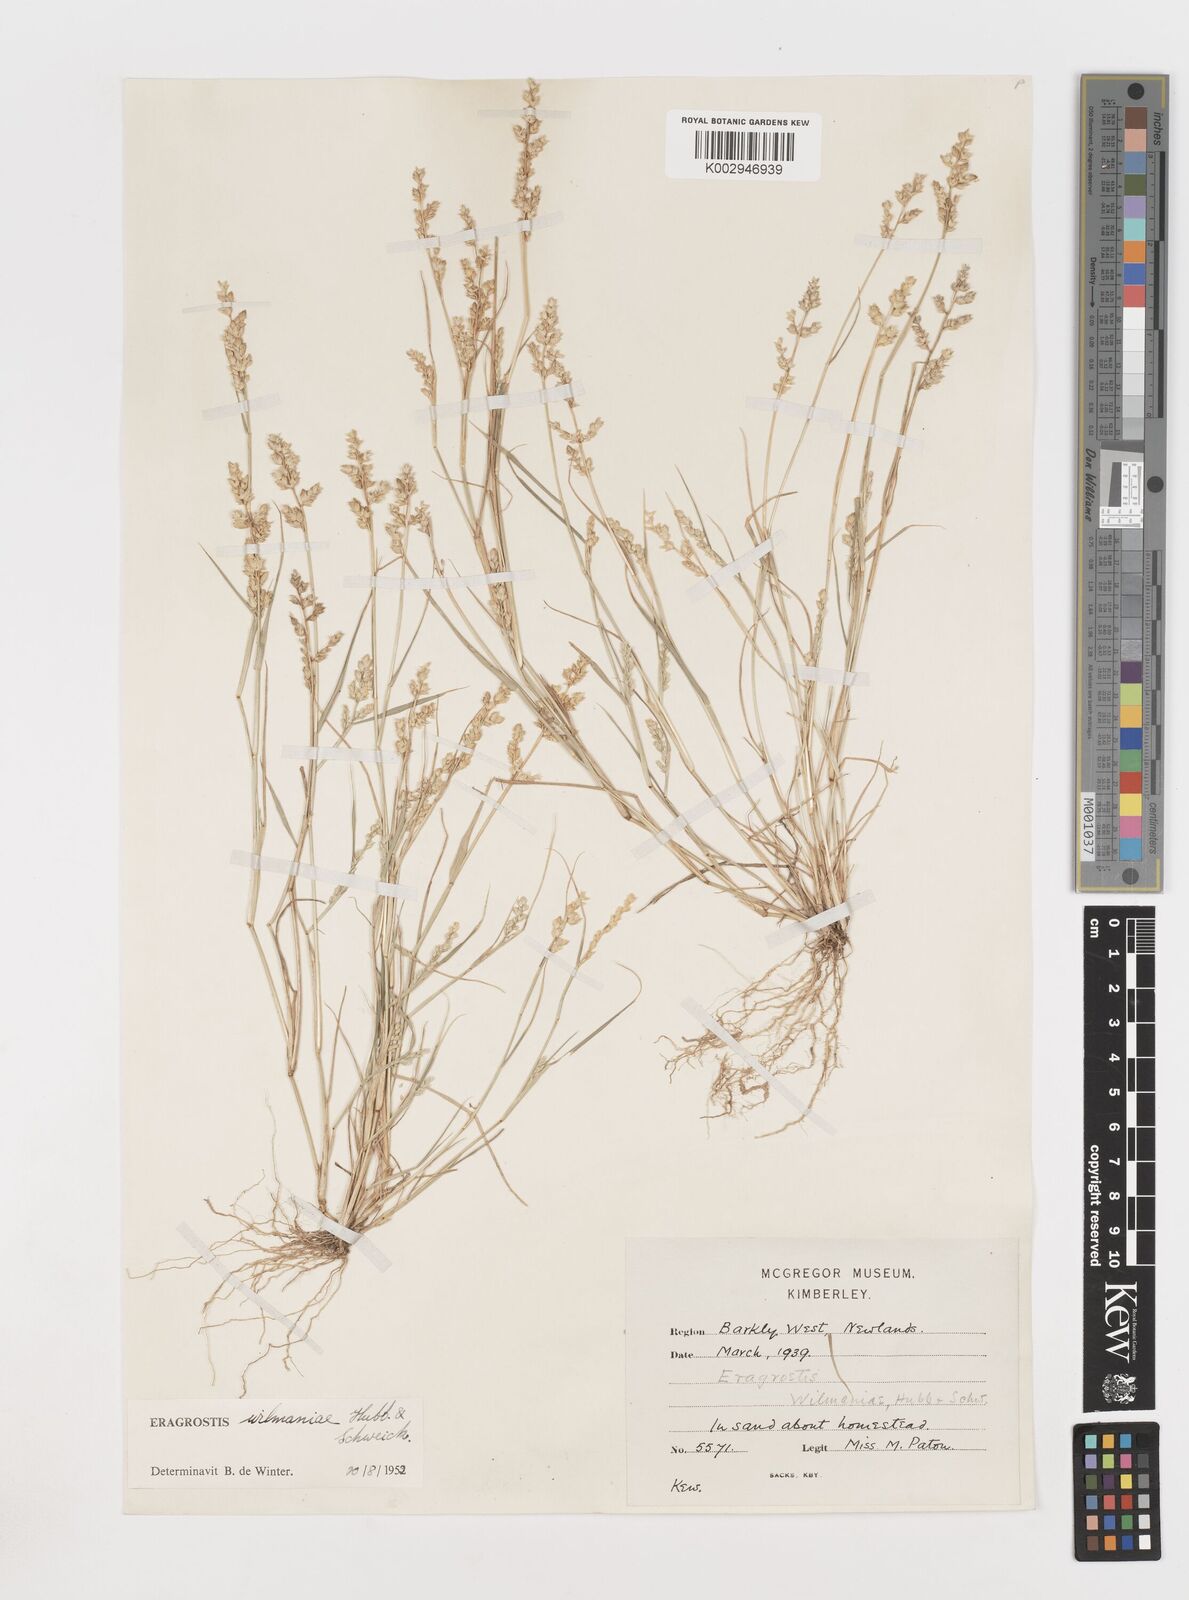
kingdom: Plantae
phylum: Tracheophyta
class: Liliopsida
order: Poales
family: Poaceae
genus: Eragrostis
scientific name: Eragrostis macrochlamys
